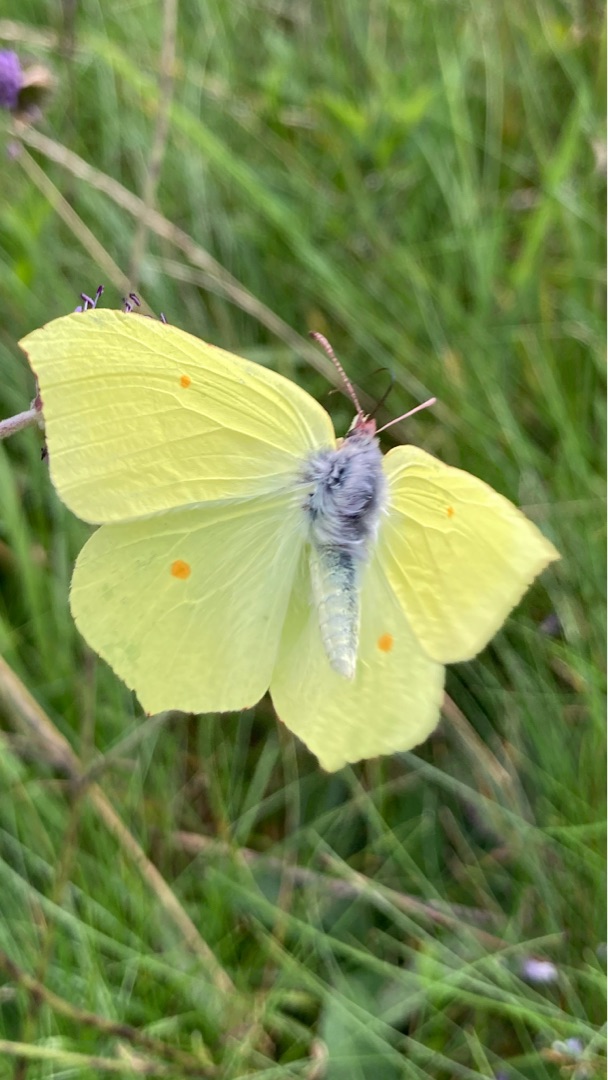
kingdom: Animalia
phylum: Arthropoda
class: Insecta
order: Lepidoptera
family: Pieridae
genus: Gonepteryx
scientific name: Gonepteryx rhamni
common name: Citronsommerfugl
